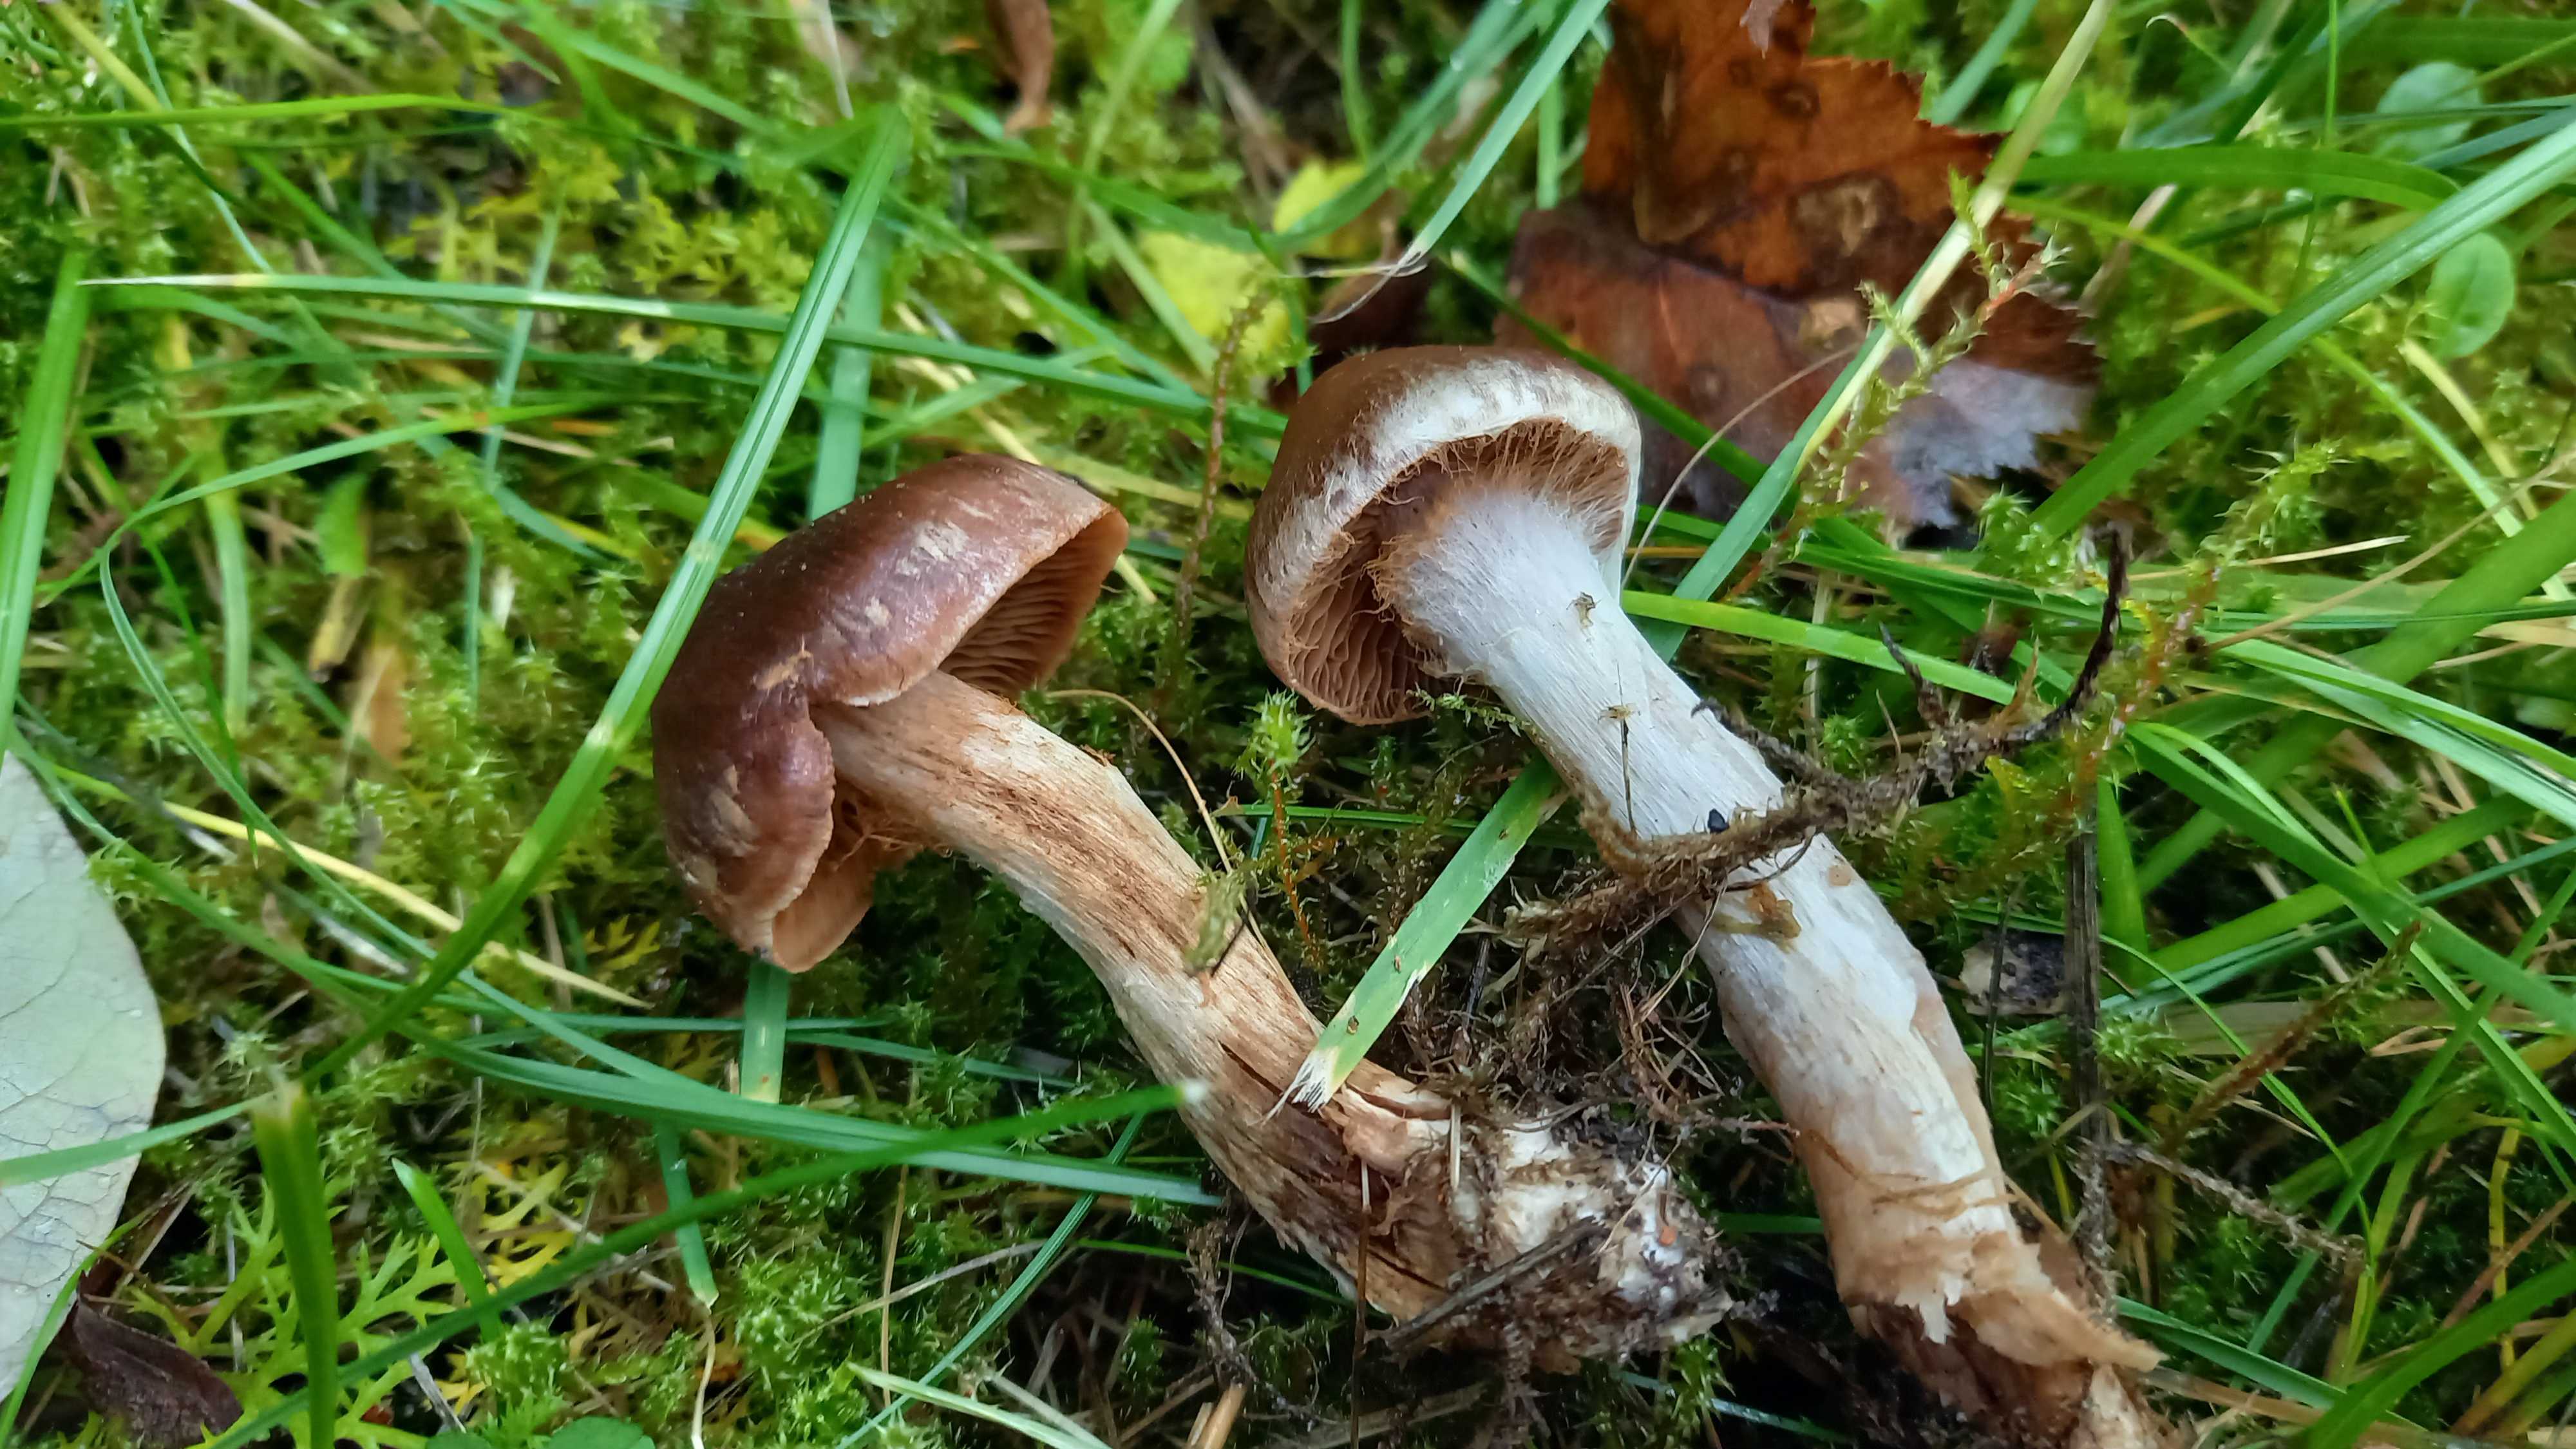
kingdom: Fungi
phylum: Basidiomycota
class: Agaricomycetes
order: Agaricales
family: Cortinariaceae
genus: Cortinarius
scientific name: Cortinarius saturninus
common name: brunviolet slørhat
